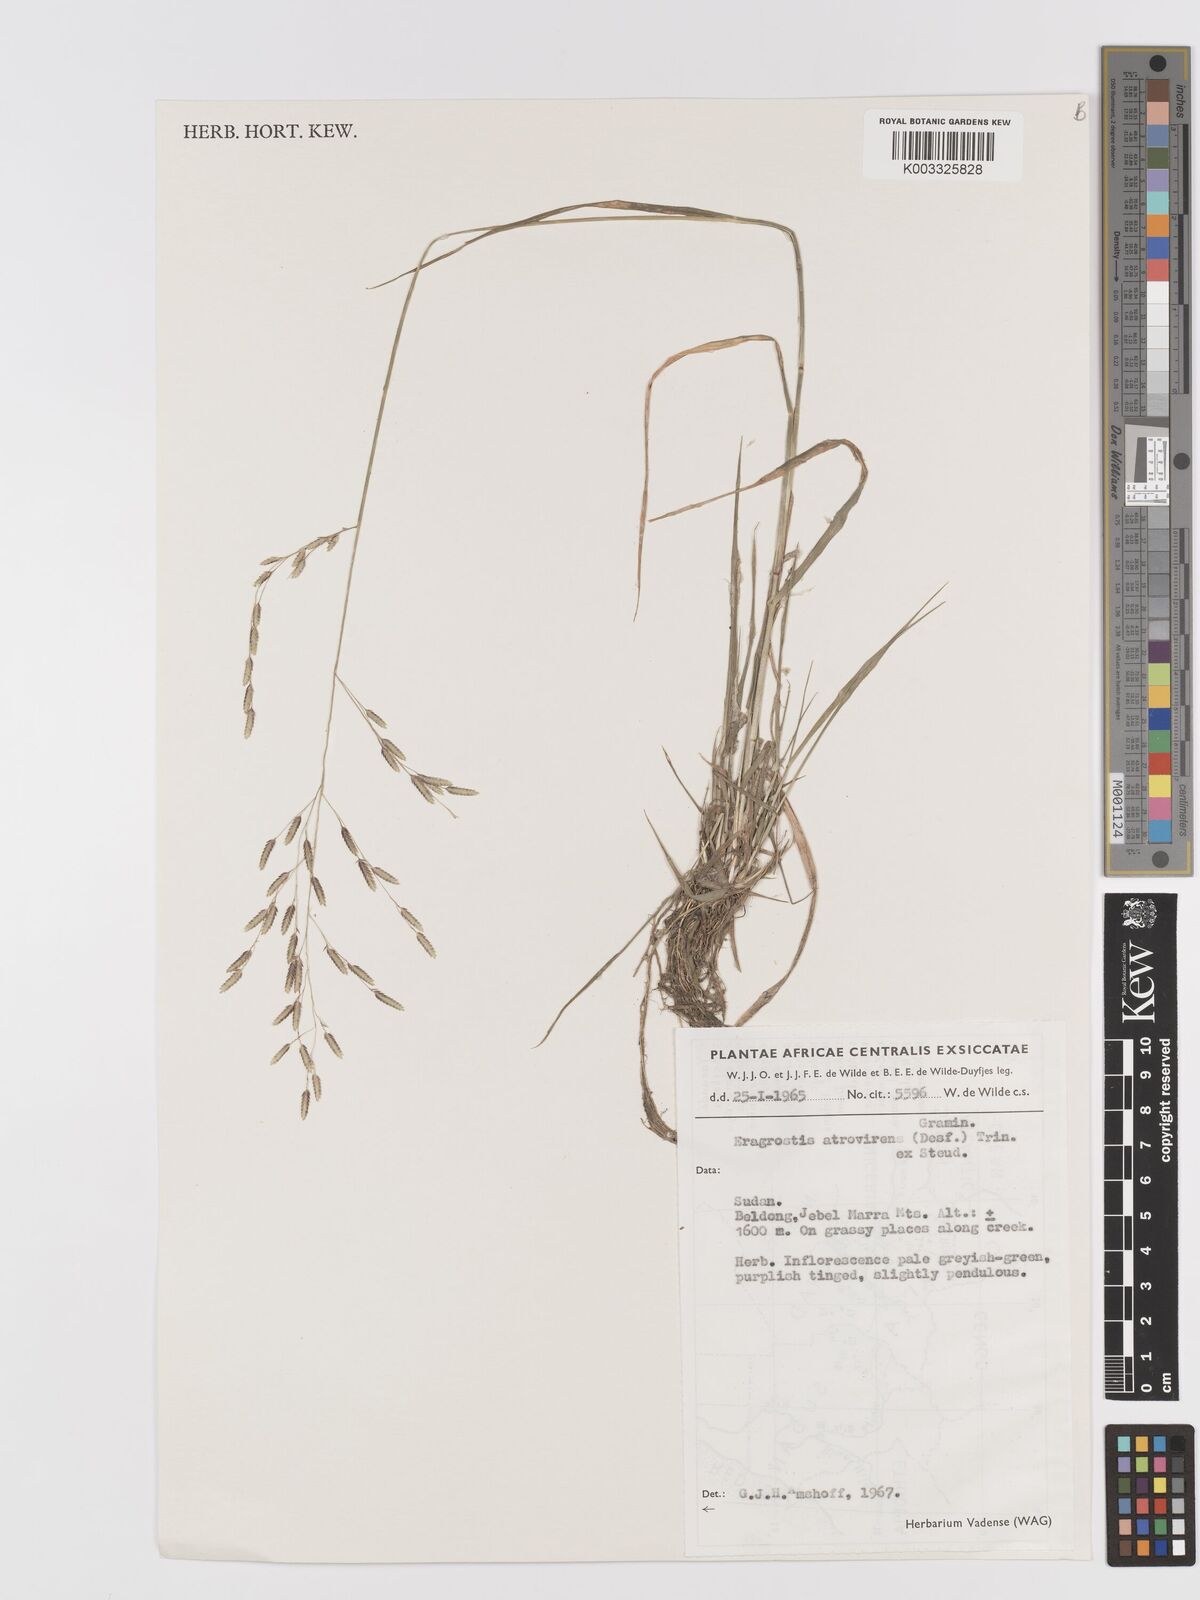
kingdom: Plantae
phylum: Tracheophyta
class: Liliopsida
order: Poales
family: Poaceae
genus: Eragrostis
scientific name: Eragrostis atrovirens
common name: Thalia lovegrass
